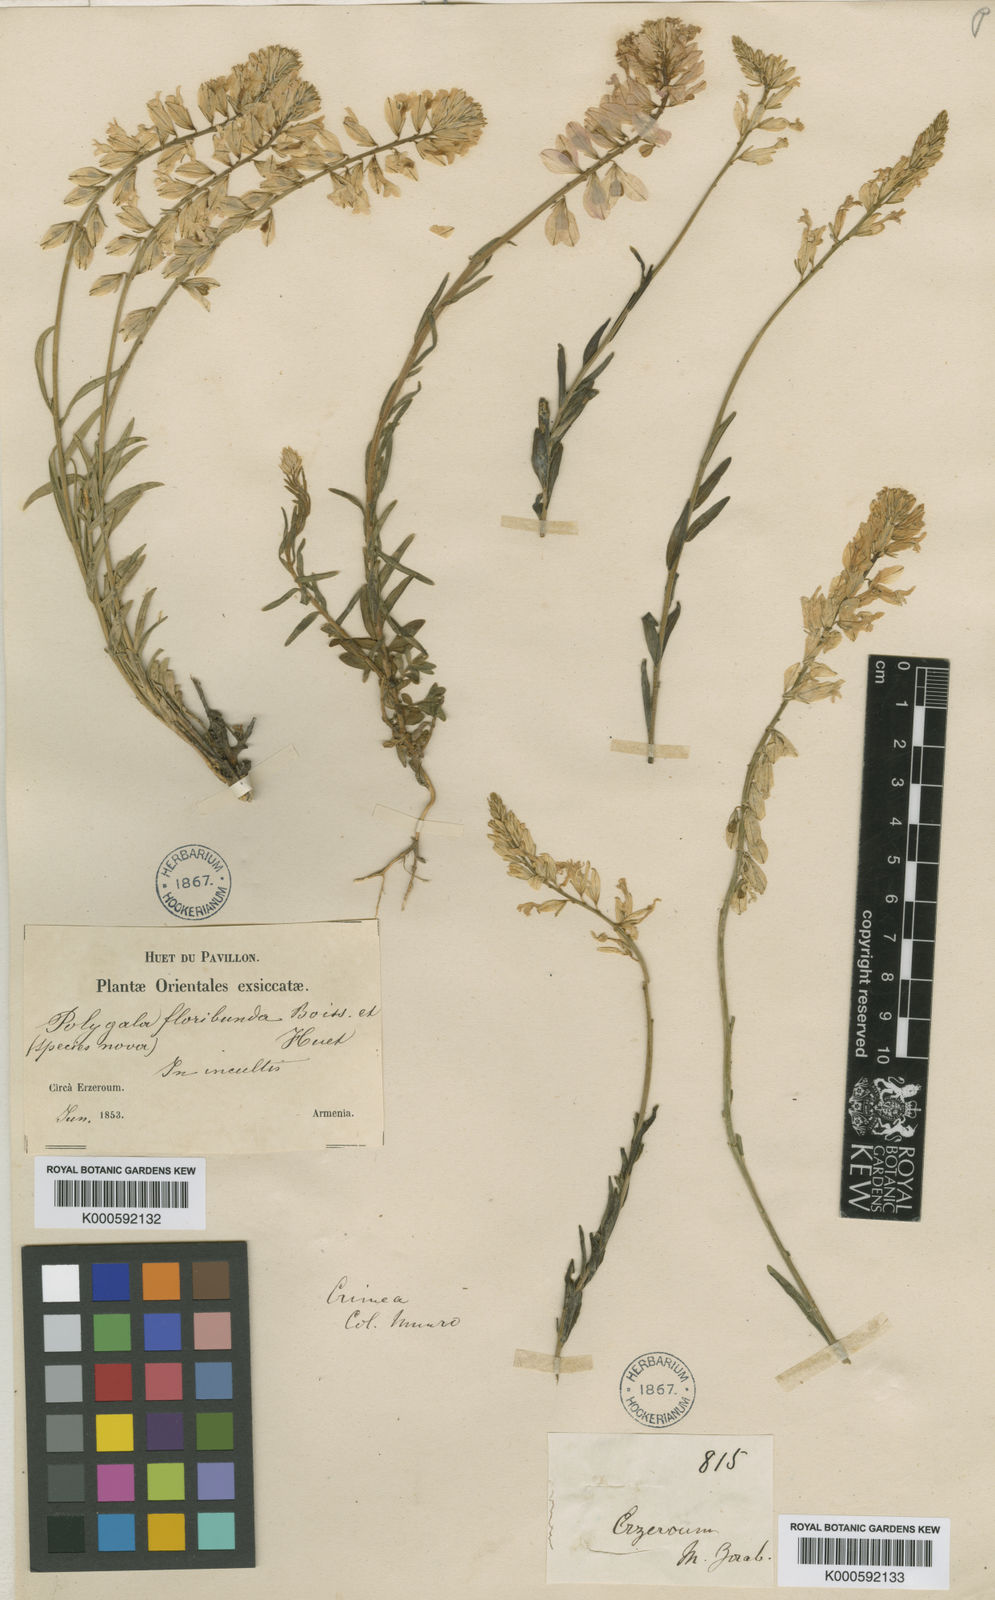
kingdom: Plantae
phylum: Tracheophyta
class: Magnoliopsida
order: Fabales
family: Polygalaceae
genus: Polygala
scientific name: Polygala anatolica
